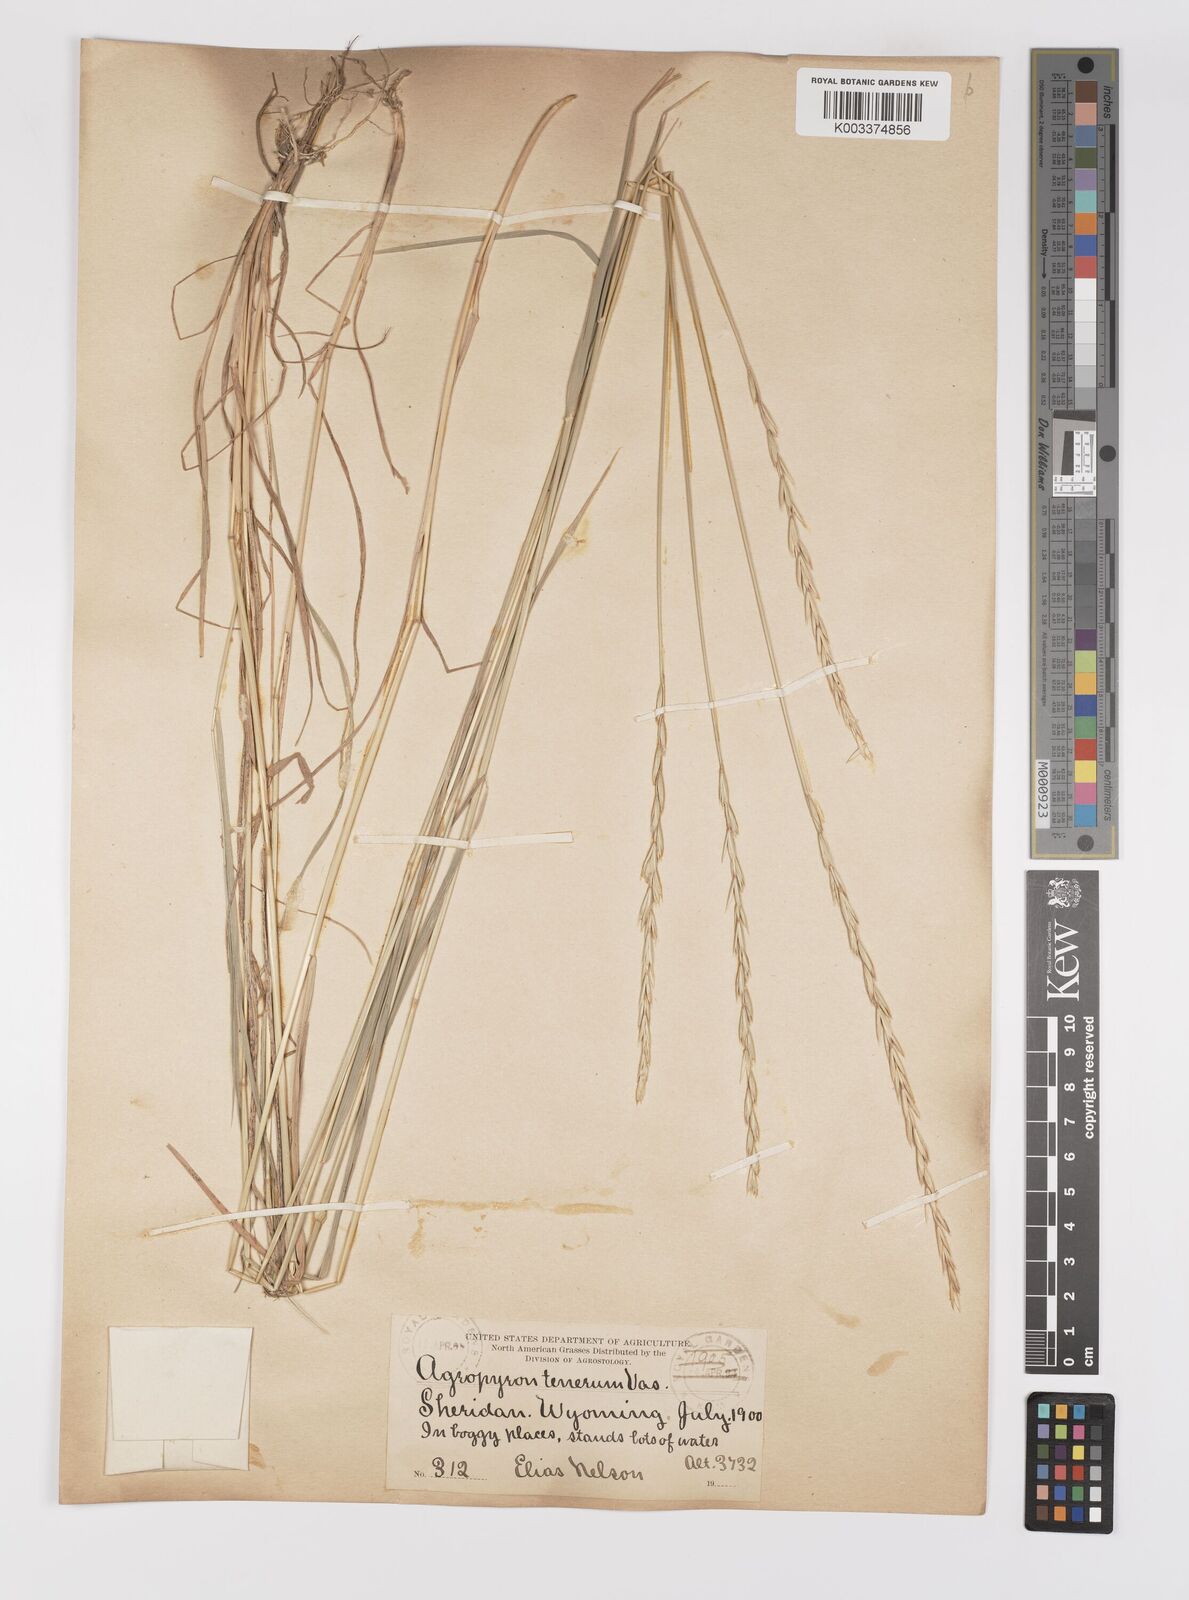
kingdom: Plantae
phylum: Tracheophyta
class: Liliopsida
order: Poales
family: Poaceae
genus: Elymus
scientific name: Elymus violaceus
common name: Arctic wheatgrass
